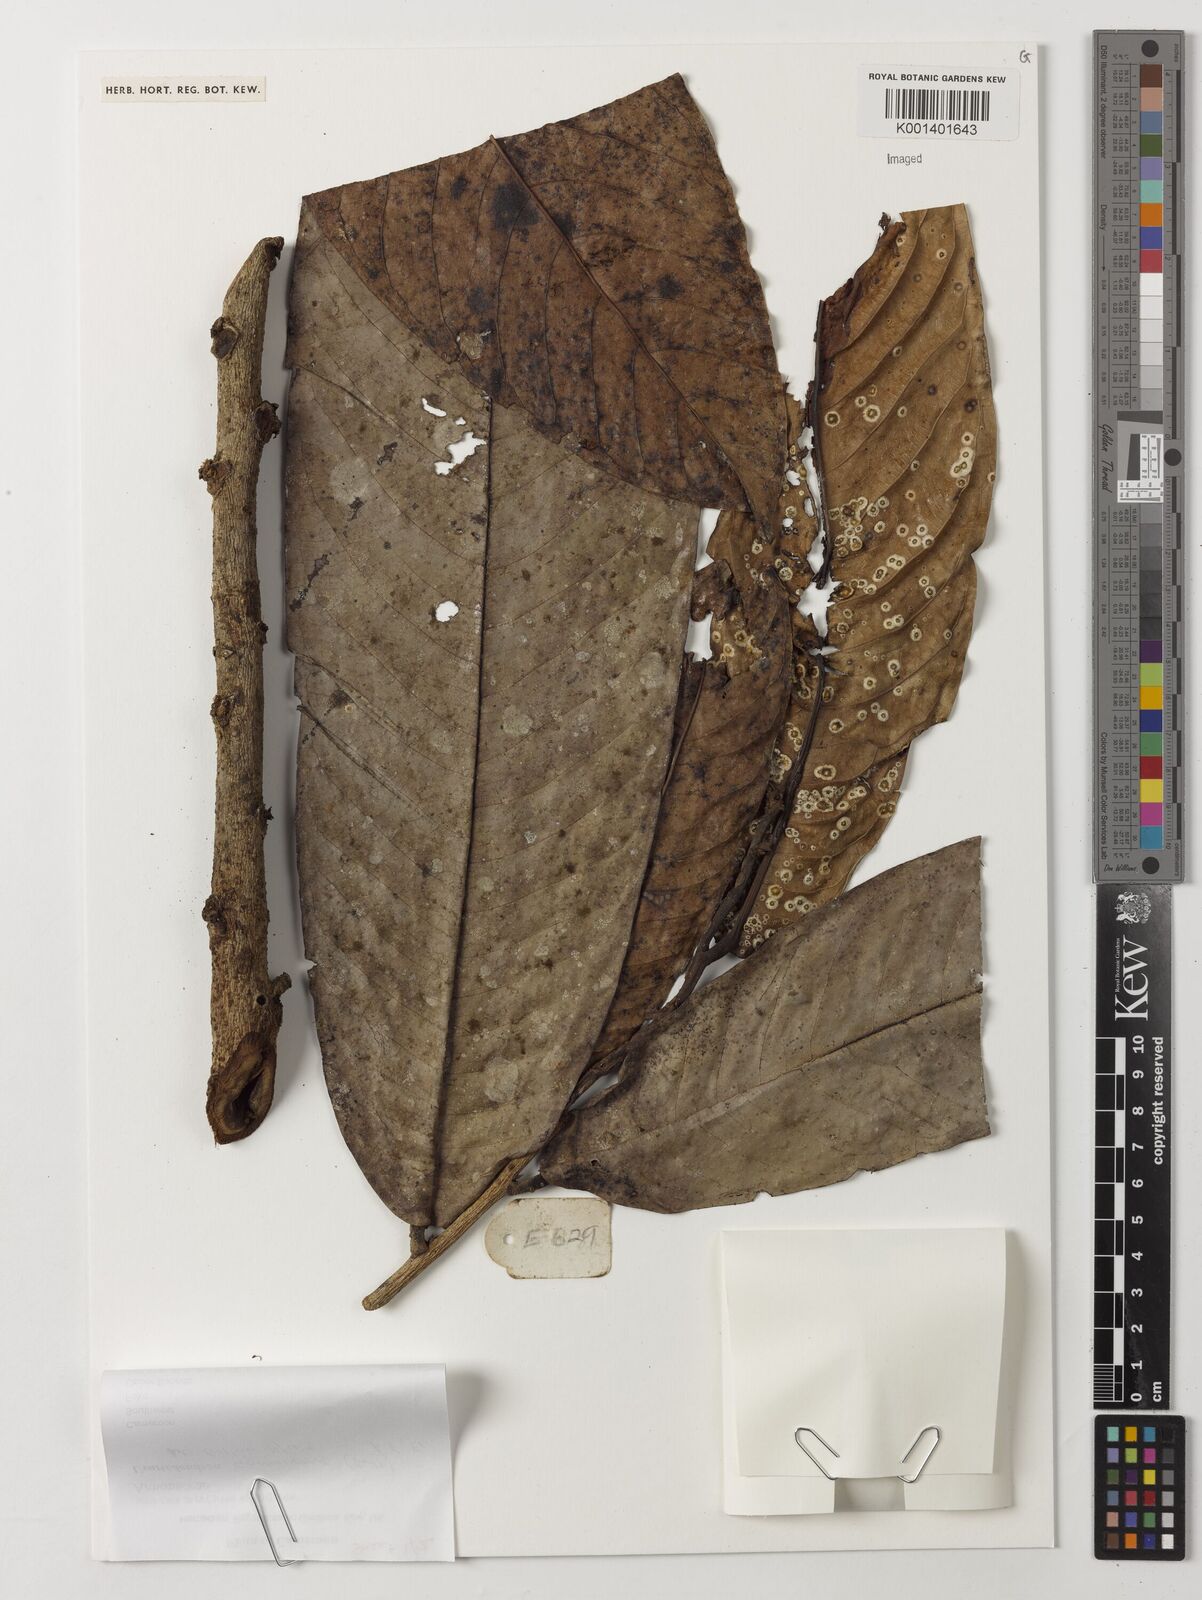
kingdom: Plantae
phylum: Tracheophyta
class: Magnoliopsida
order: Magnoliales
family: Annonaceae
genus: Uvariodendron
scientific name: Uvariodendron connivens
